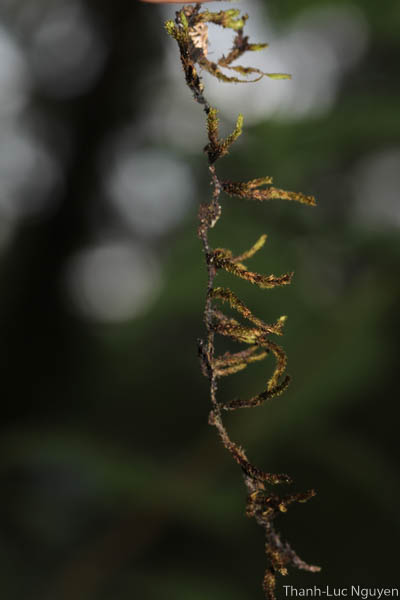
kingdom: Plantae
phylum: Bryophyta
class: Bryopsida
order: Hypnales
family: Meteoriaceae
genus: Cryptopapillaria
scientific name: Cryptopapillaria chrysoclada
